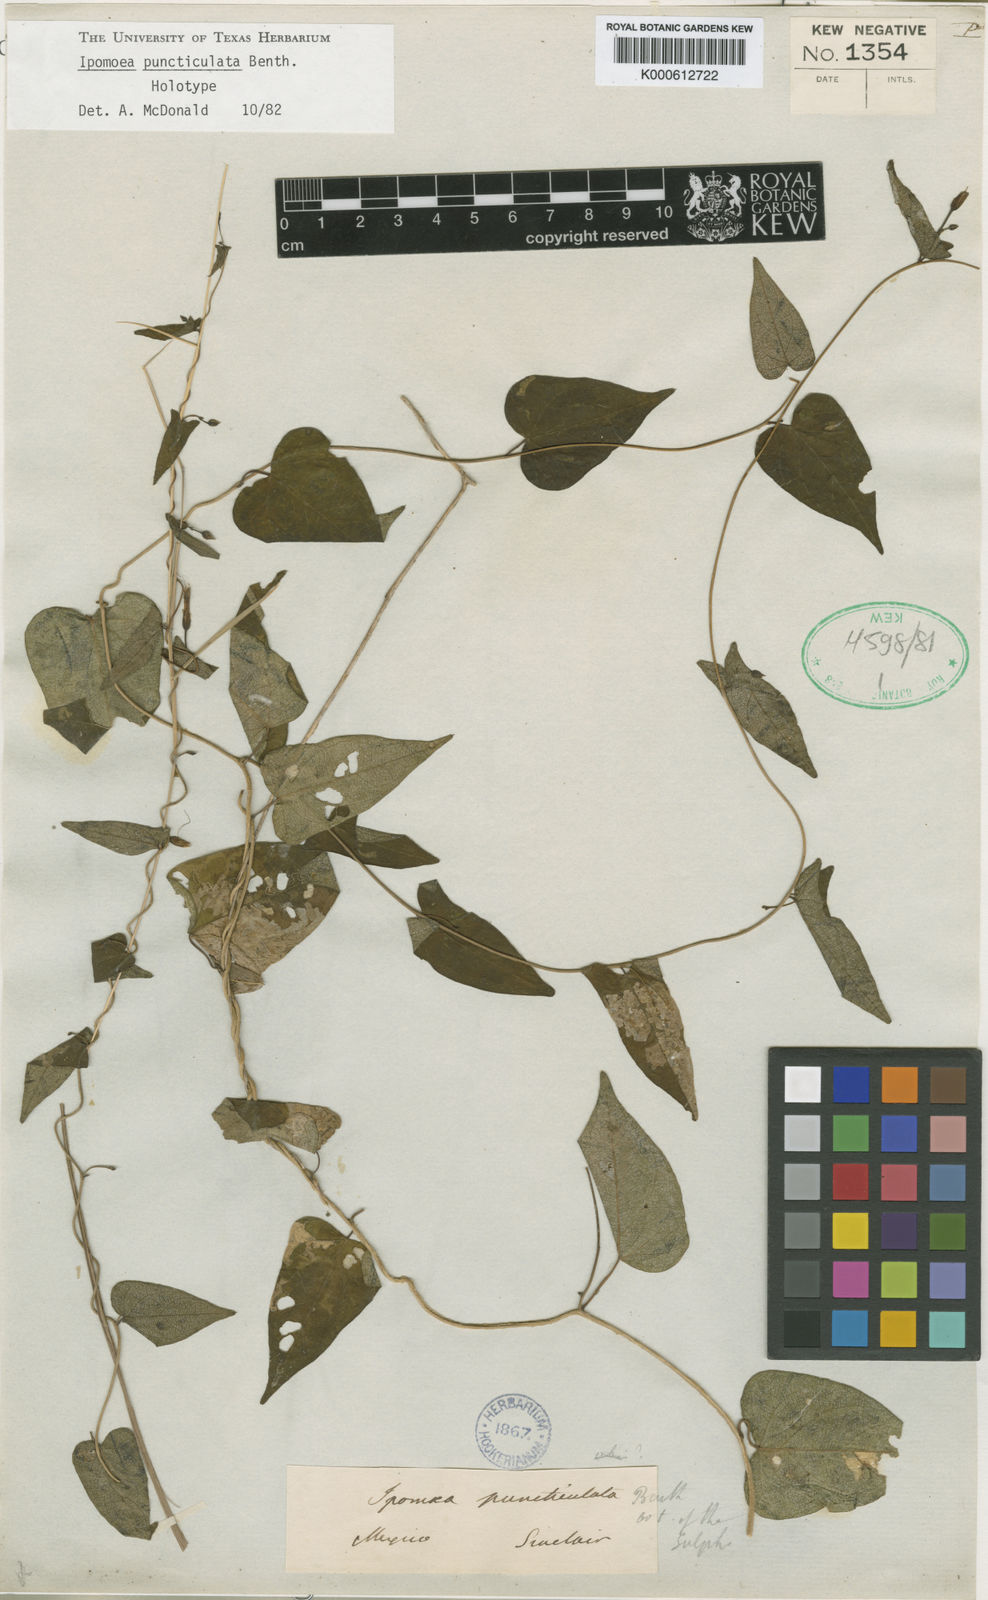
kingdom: Plantae
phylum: Tracheophyta
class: Magnoliopsida
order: Solanales
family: Convolvulaceae
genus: Ipomoea
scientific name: Ipomoea puncticulata
